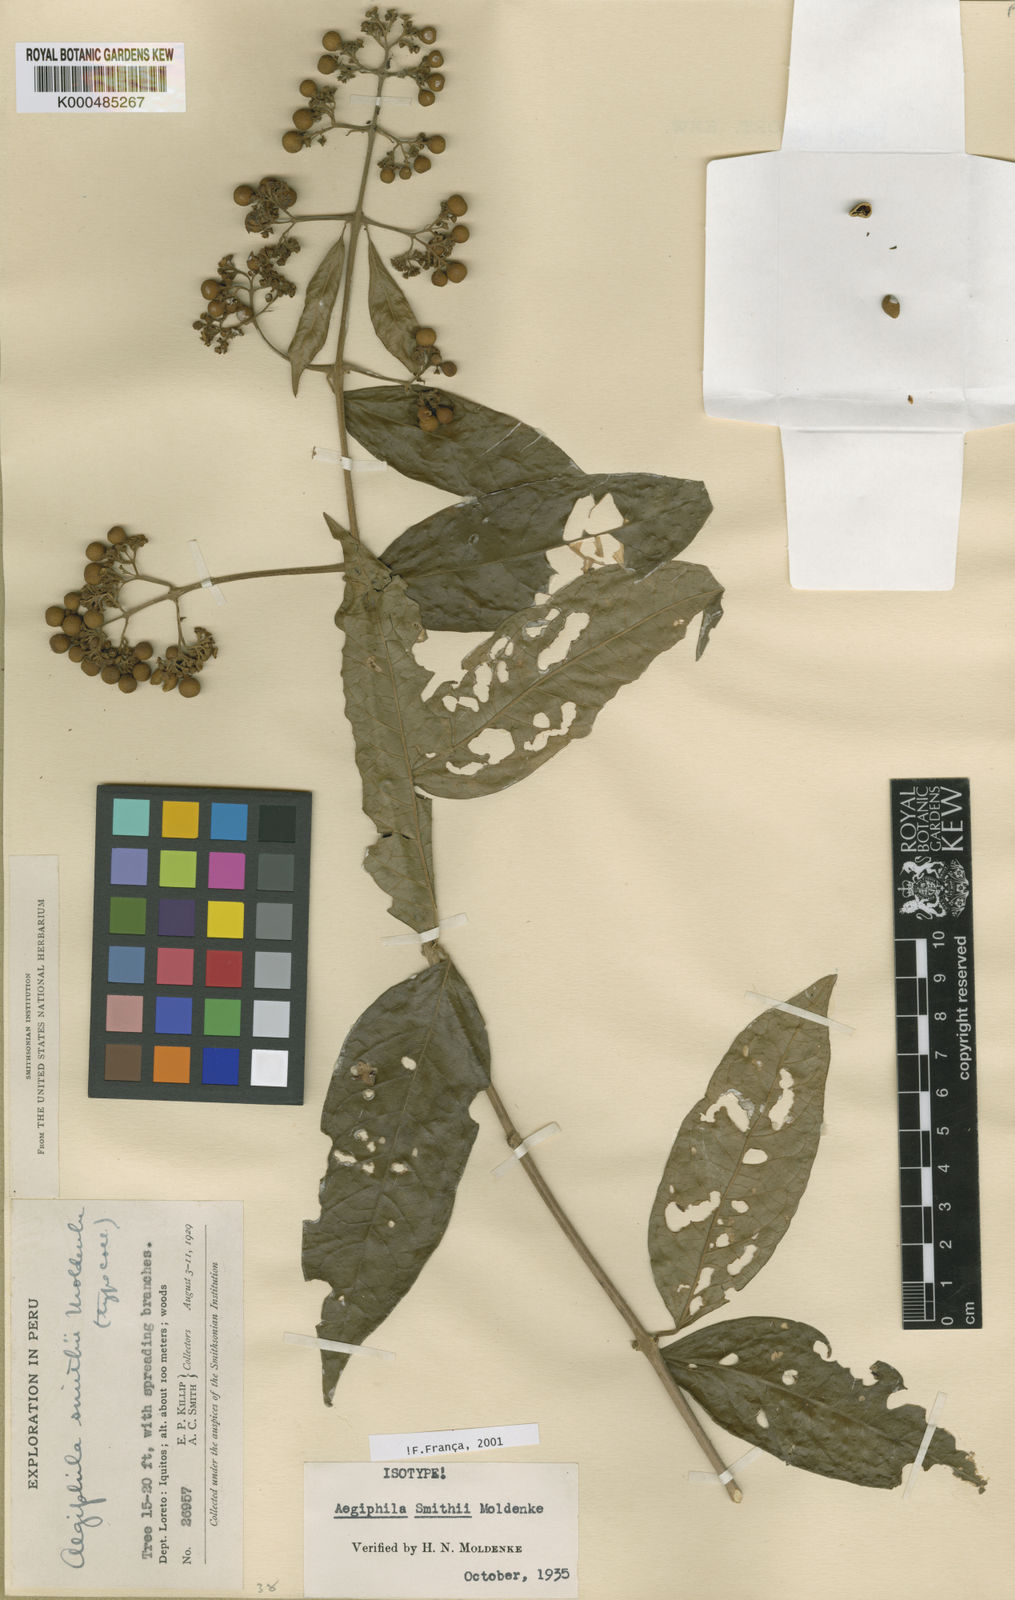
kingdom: Plantae
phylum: Tracheophyta
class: Magnoliopsida
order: Lamiales
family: Lamiaceae
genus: Aegiphila
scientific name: Aegiphila smithii
